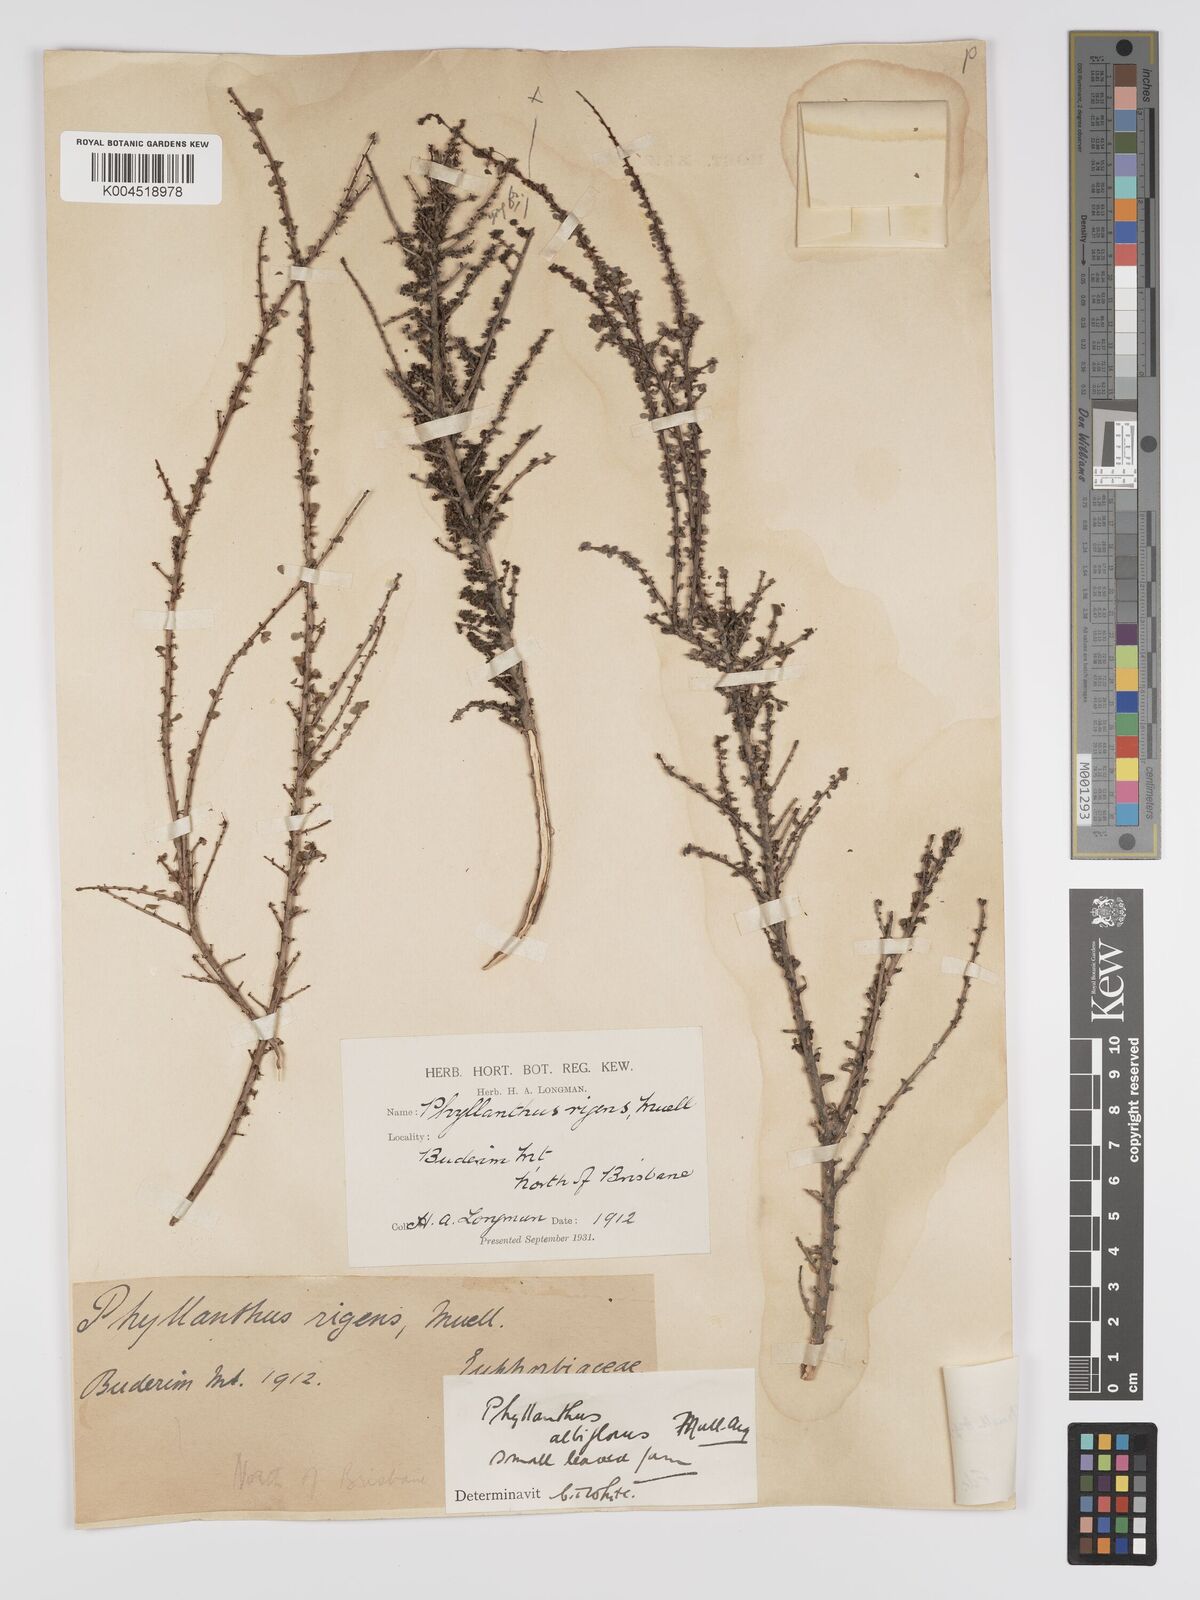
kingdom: Plantae
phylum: Tracheophyta
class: Magnoliopsida
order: Malpighiales
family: Phyllanthaceae
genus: Phyllanthus
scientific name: Phyllanthus microcladus
